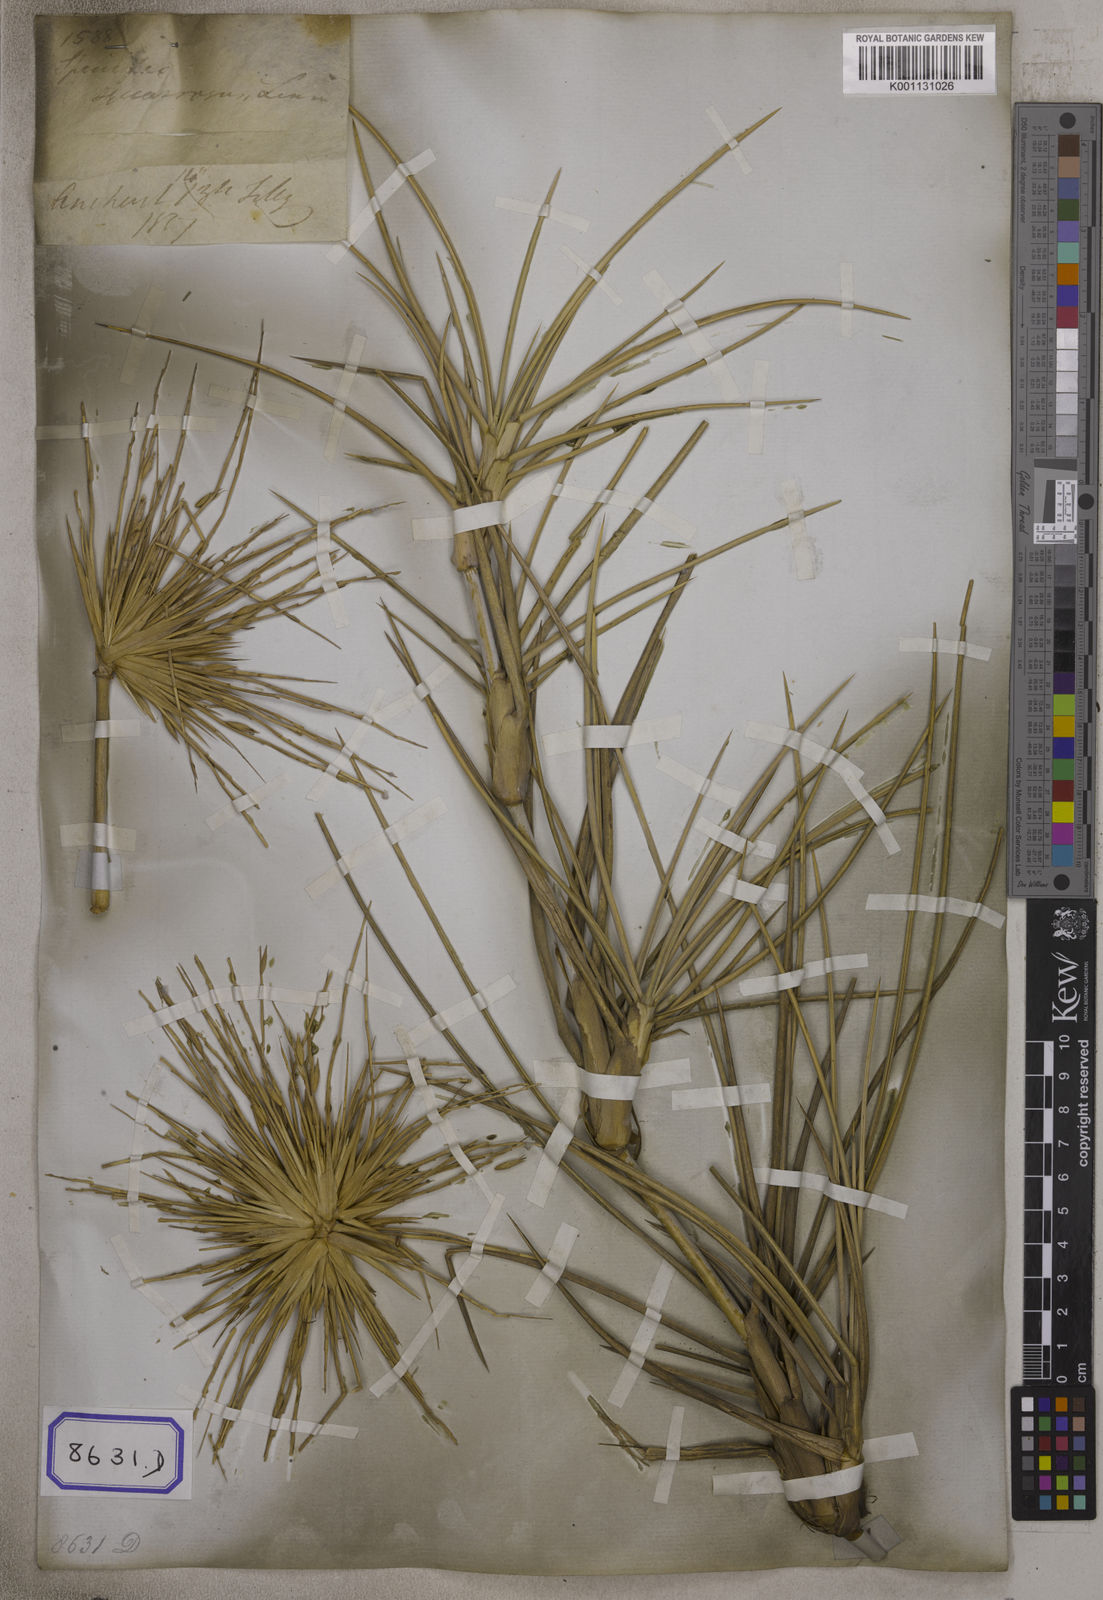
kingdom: Plantae
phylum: Tracheophyta
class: Liliopsida
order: Poales
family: Poaceae
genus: Spinifex
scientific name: Spinifex littoreus
